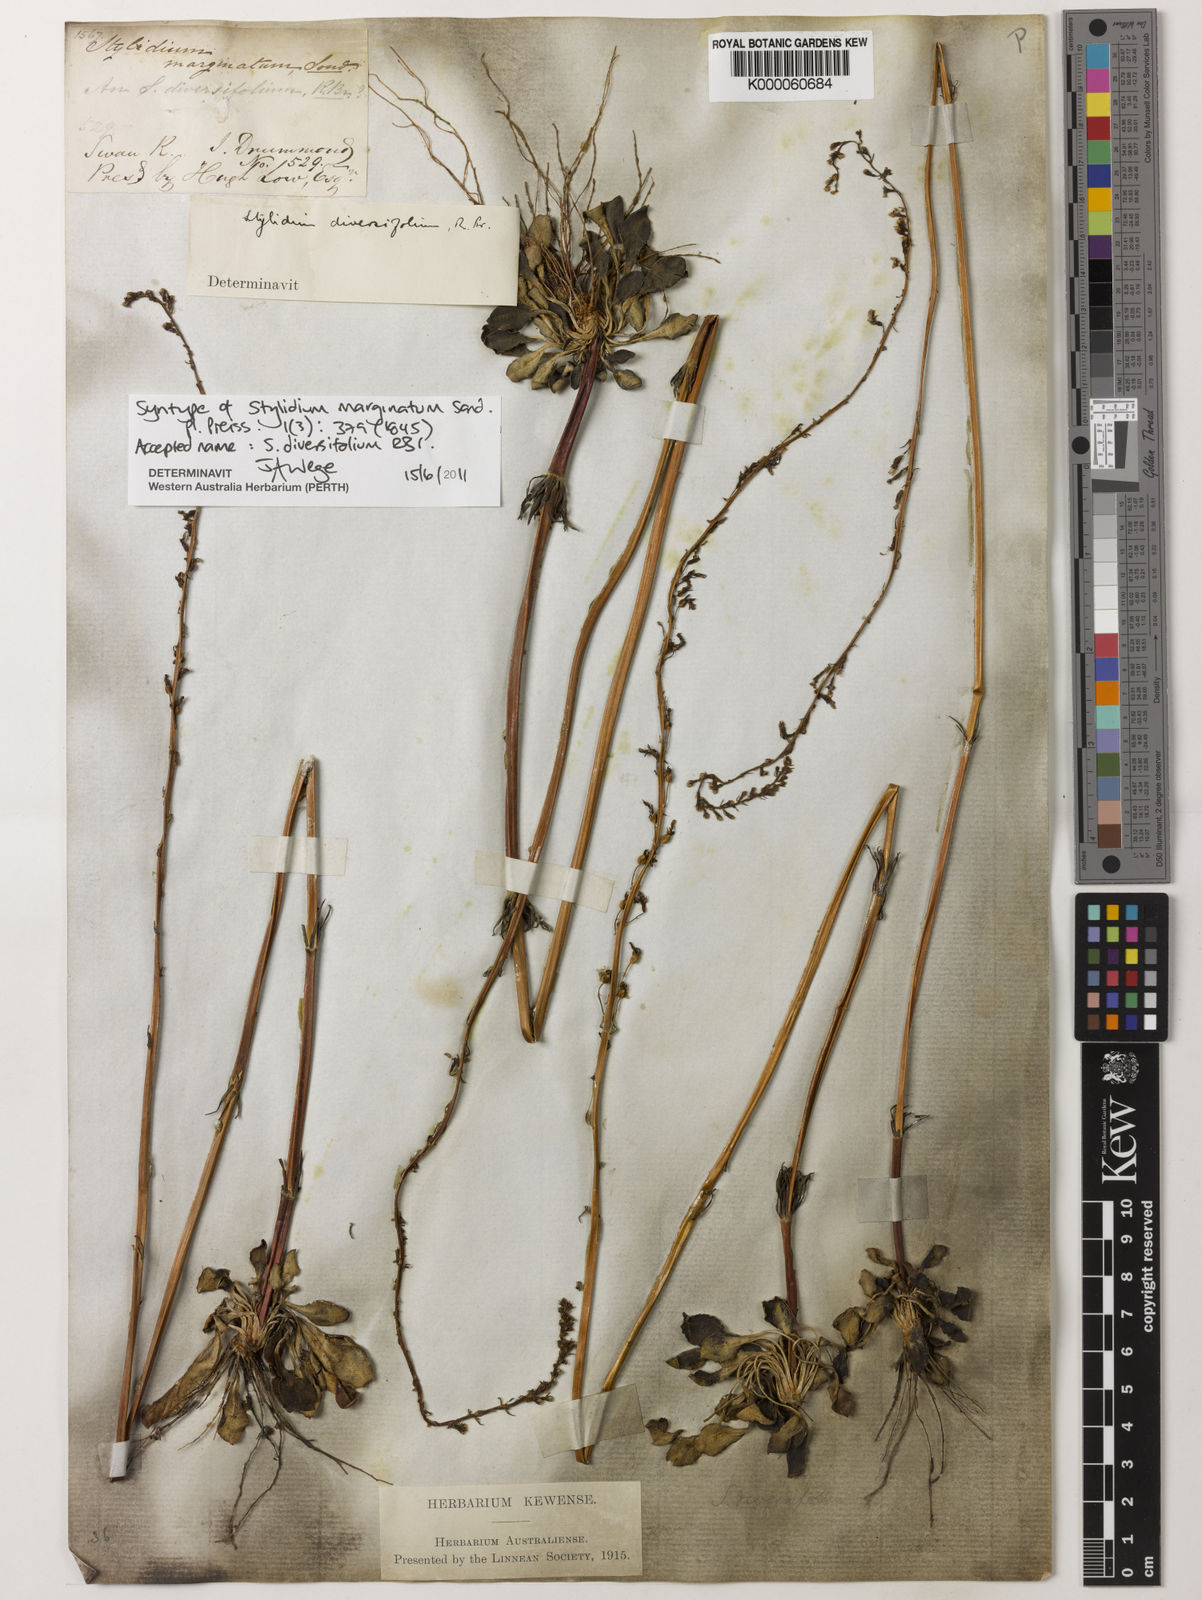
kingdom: Plantae
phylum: Tracheophyta
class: Magnoliopsida
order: Asterales
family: Stylidiaceae
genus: Stylidium
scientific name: Stylidium diversifolium
